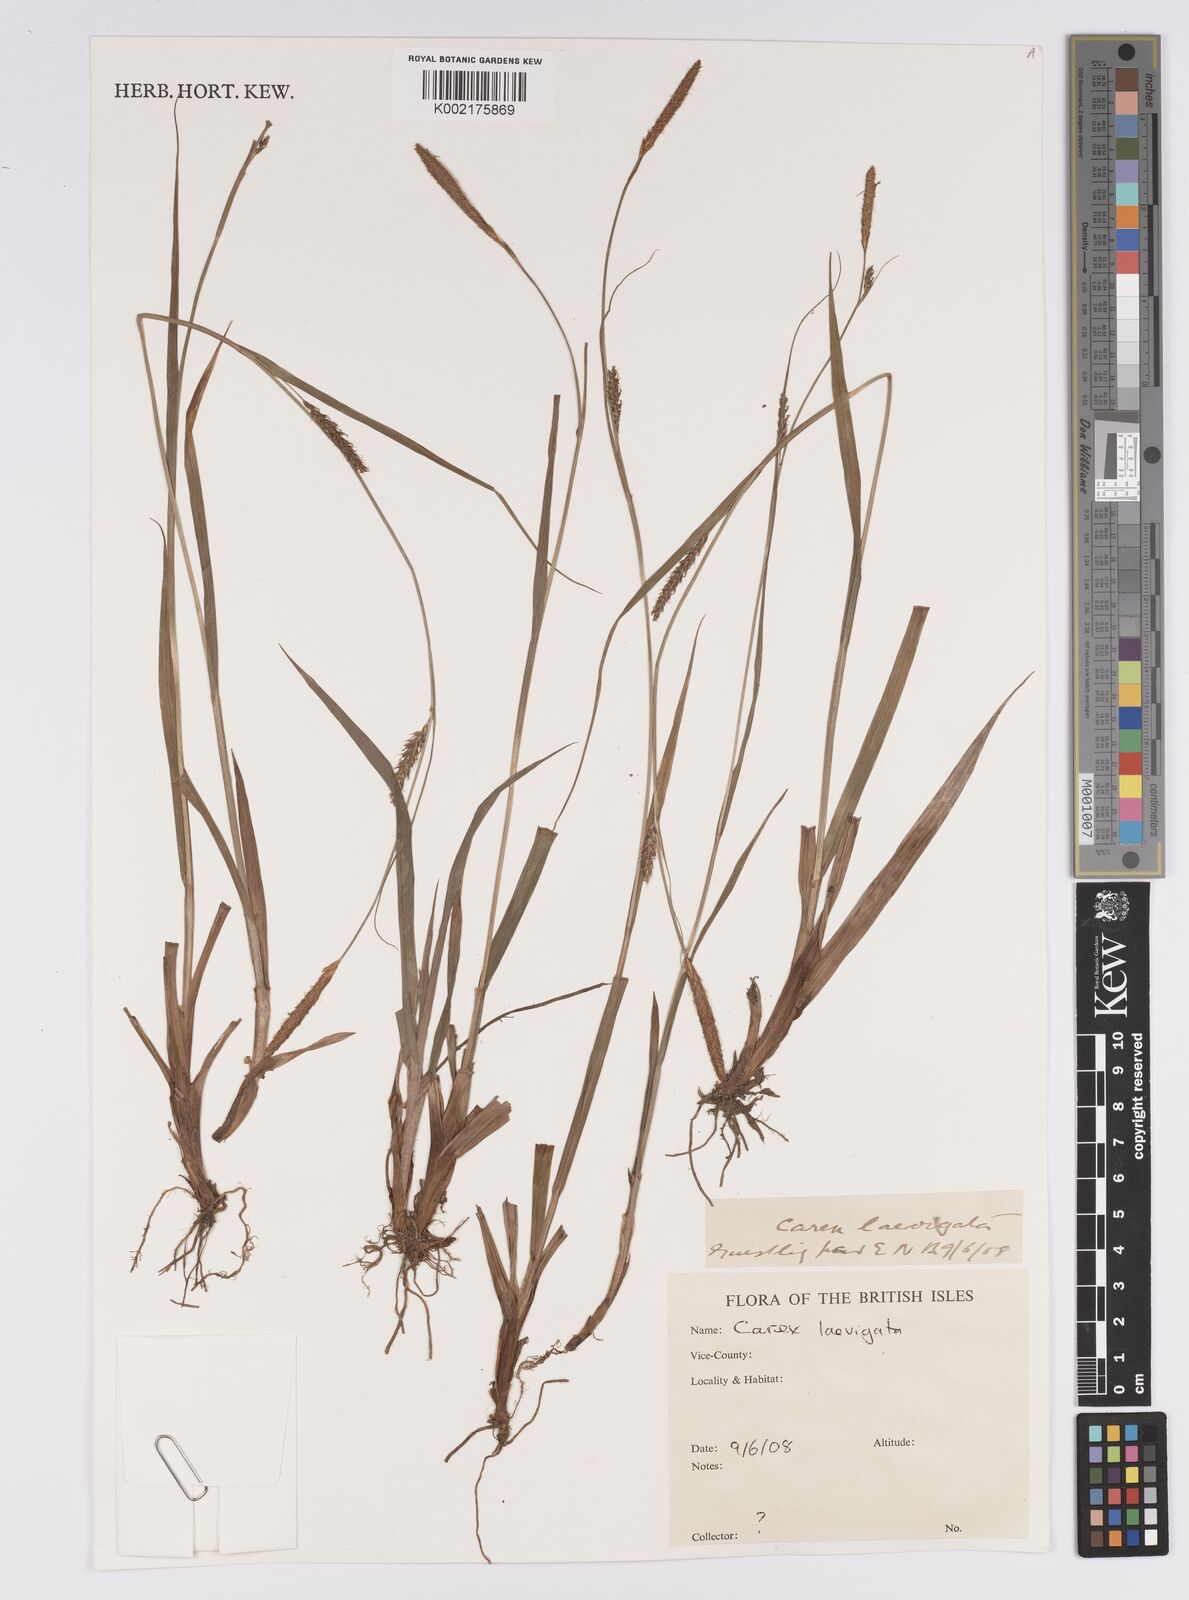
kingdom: Plantae
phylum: Tracheophyta
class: Liliopsida
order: Poales
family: Cyperaceae
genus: Carex
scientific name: Carex laevigata
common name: Smooth-stalked sedge
